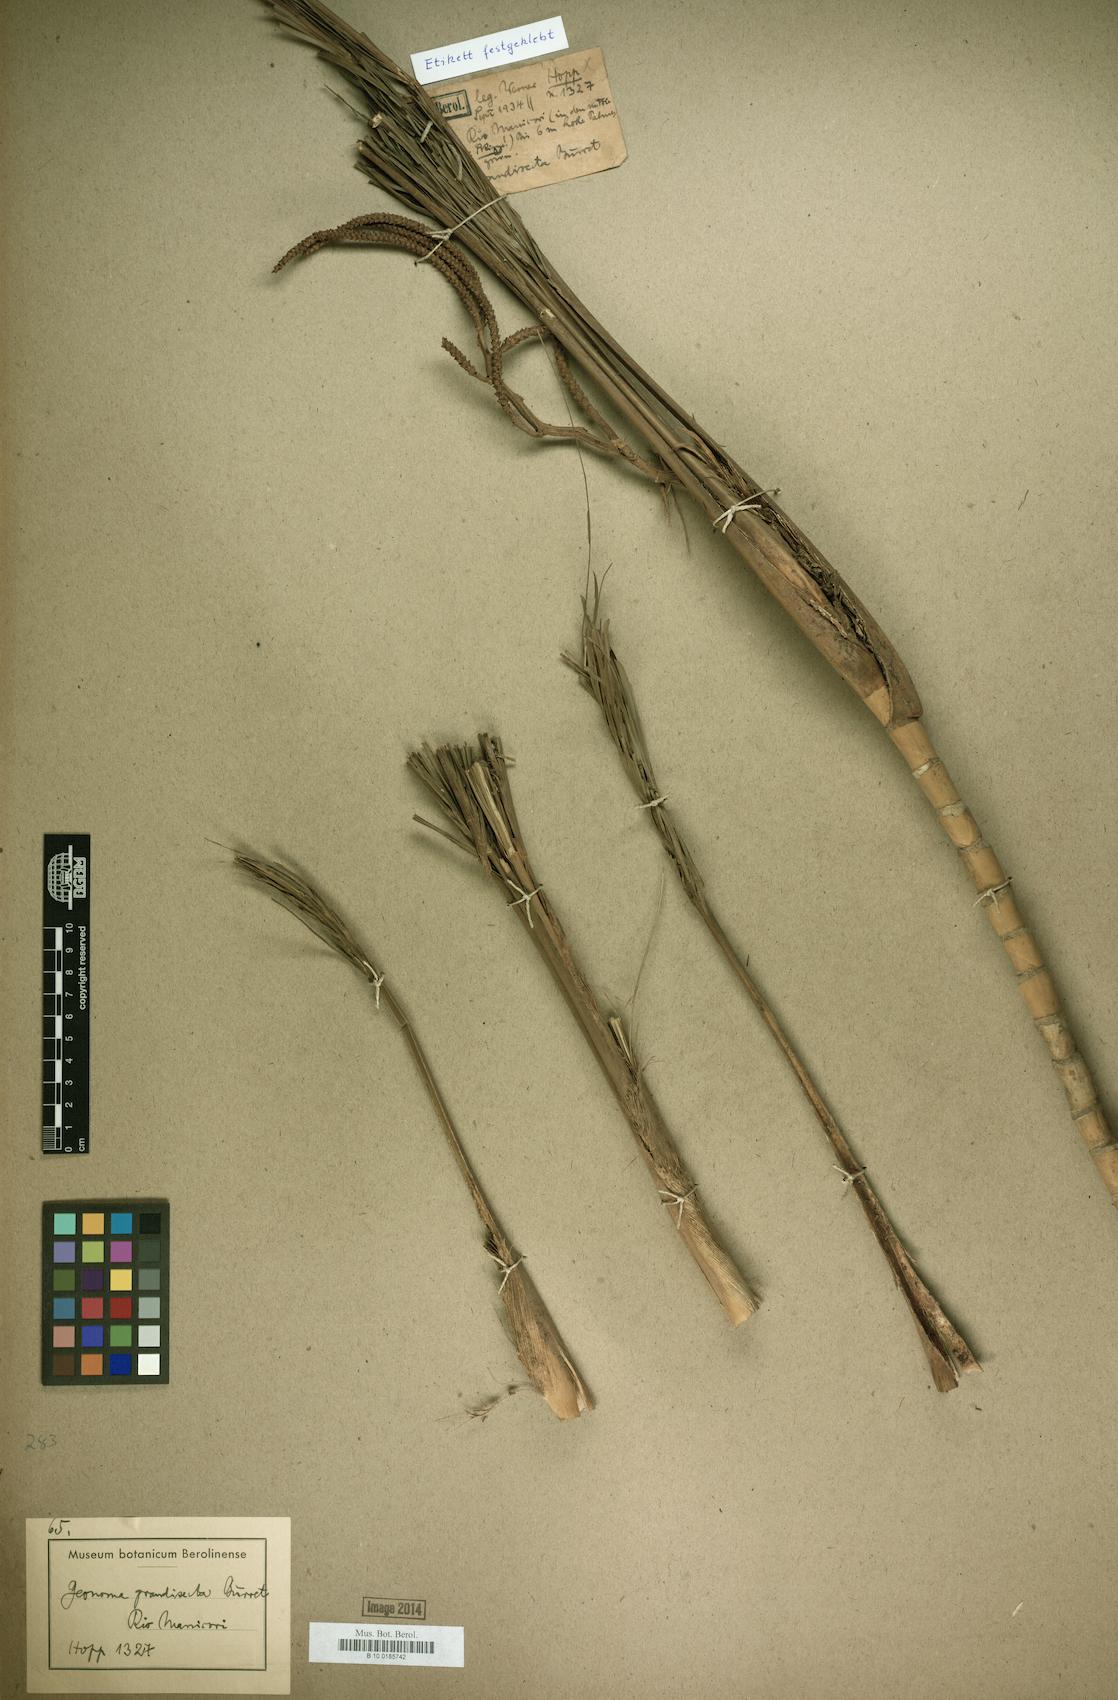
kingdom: Plantae
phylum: Tracheophyta
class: Liliopsida
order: Arecales
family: Arecaceae
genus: Geonoma
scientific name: Geonoma maxima
